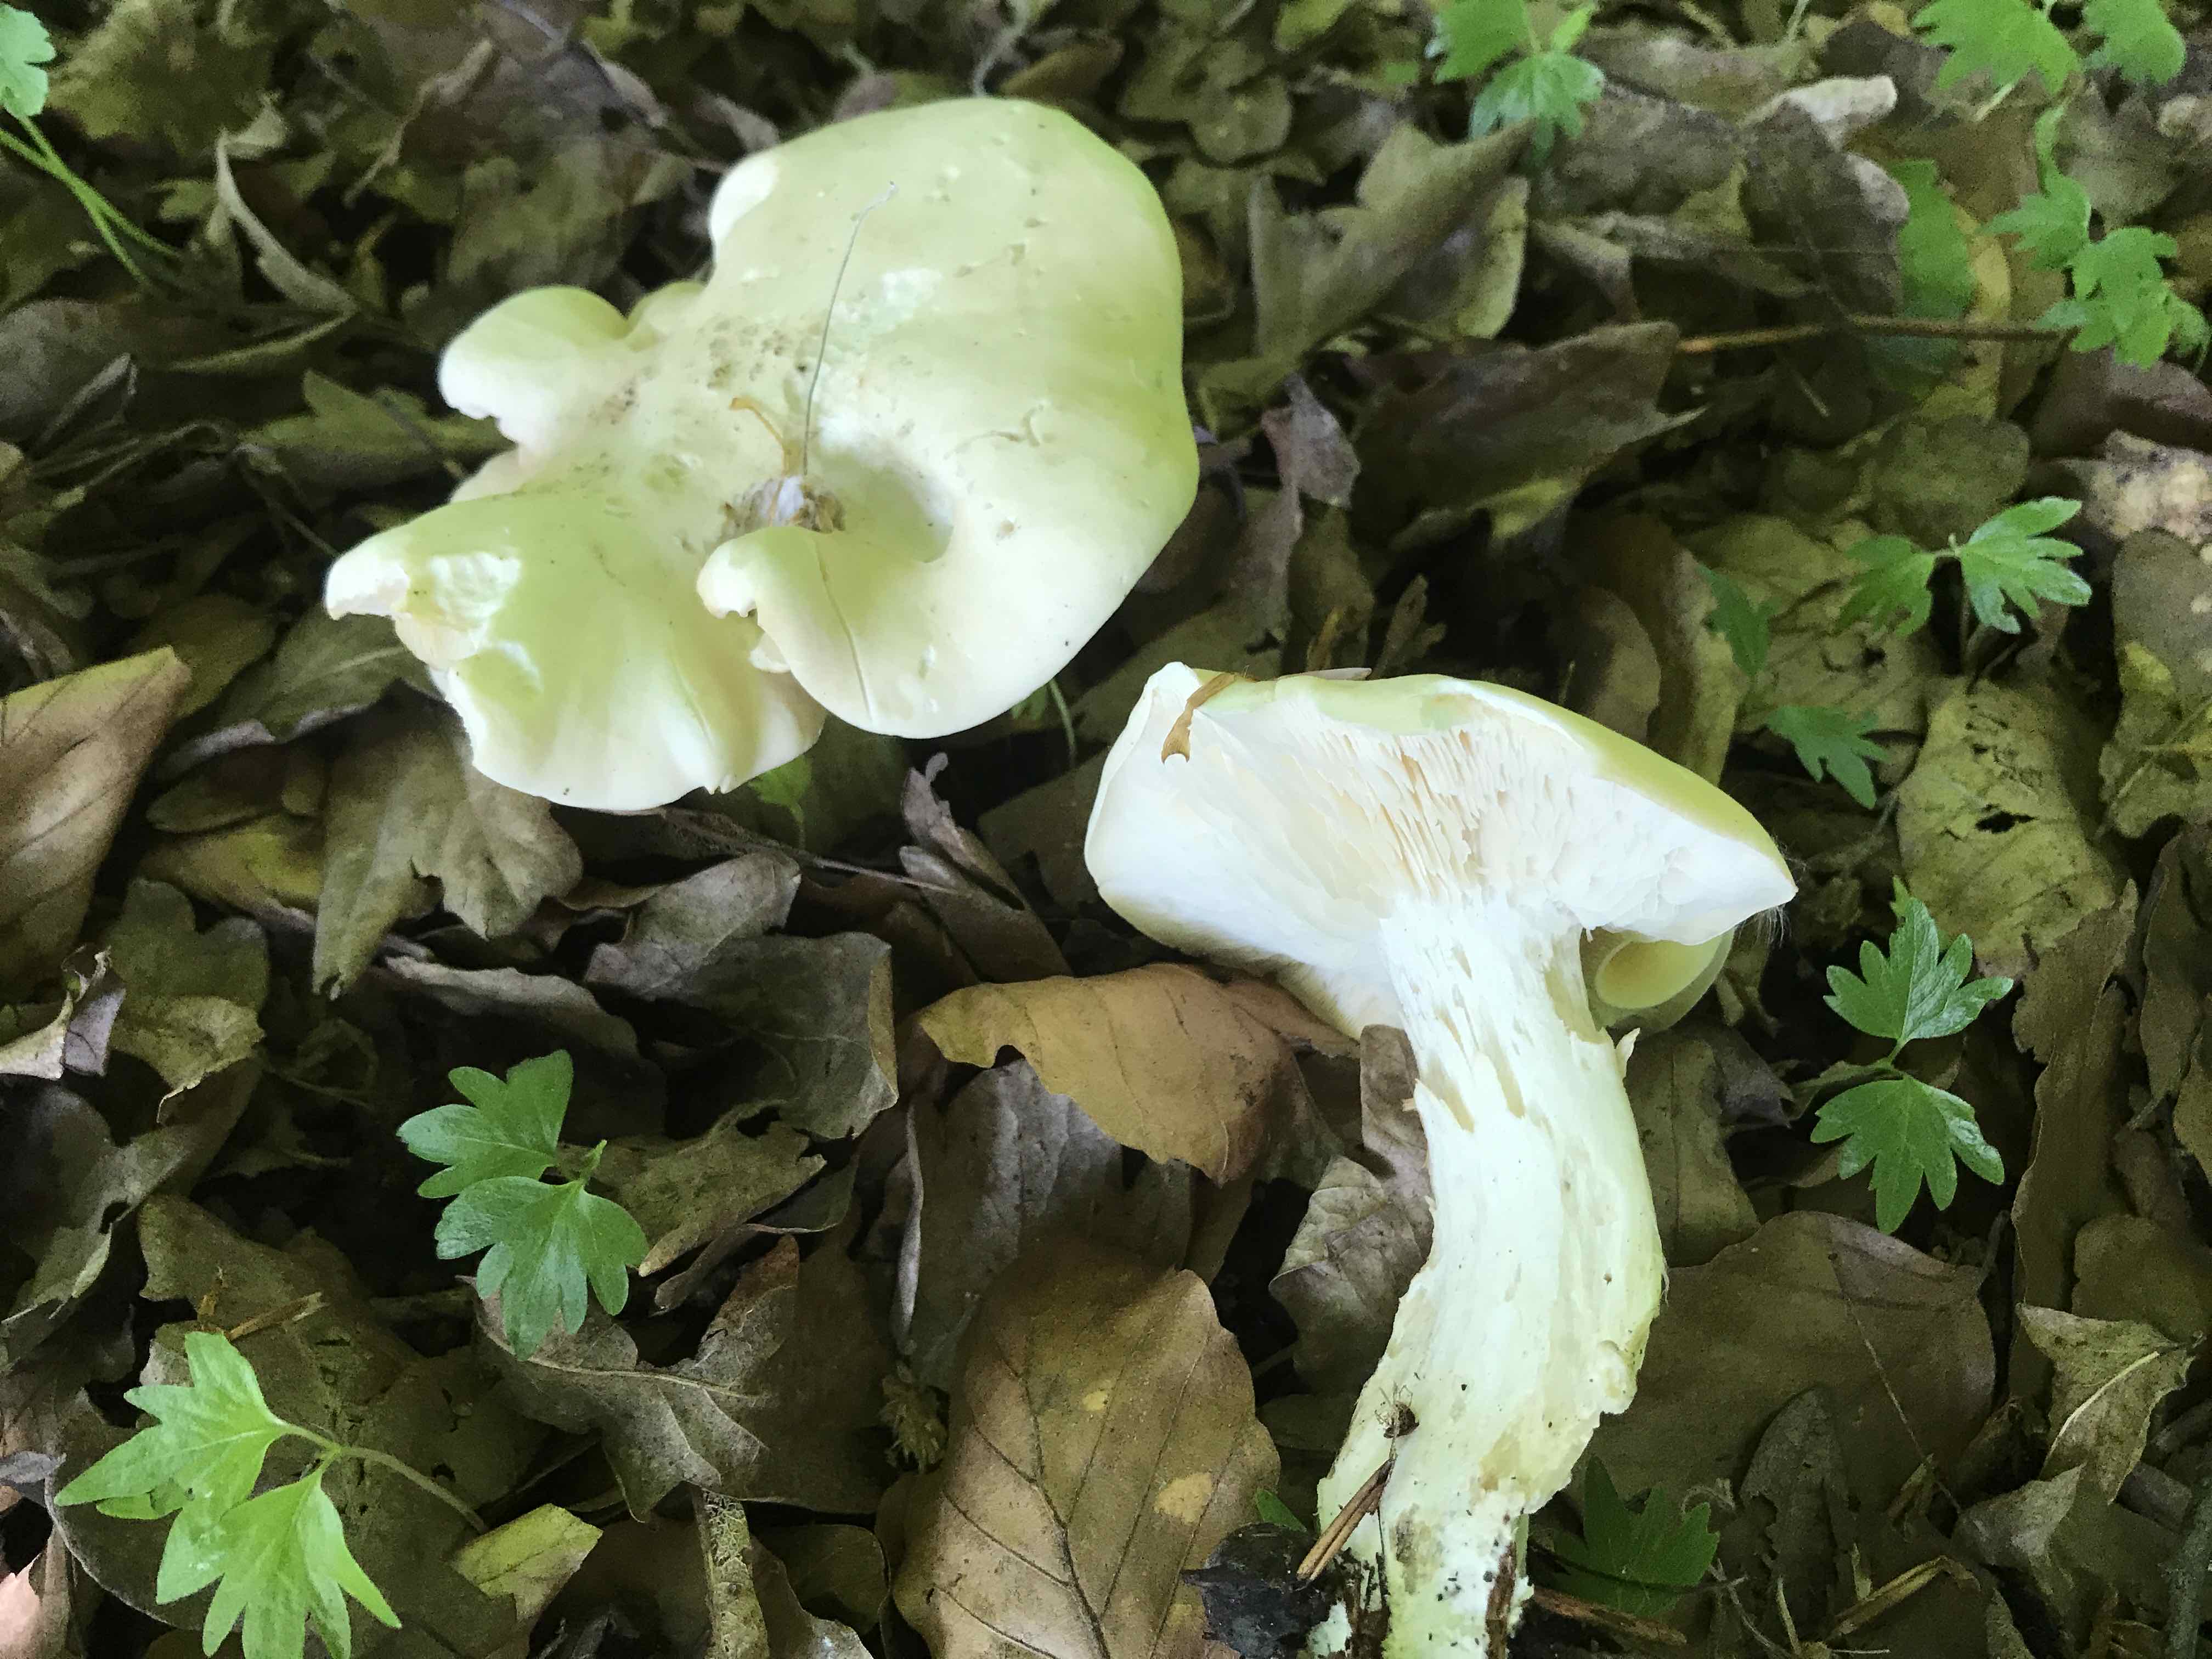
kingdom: Fungi
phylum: Basidiomycota
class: Agaricomycetes
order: Agaricales
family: Lyophyllaceae
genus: Calocybe
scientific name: Calocybe gambosa
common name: vårmusseron
